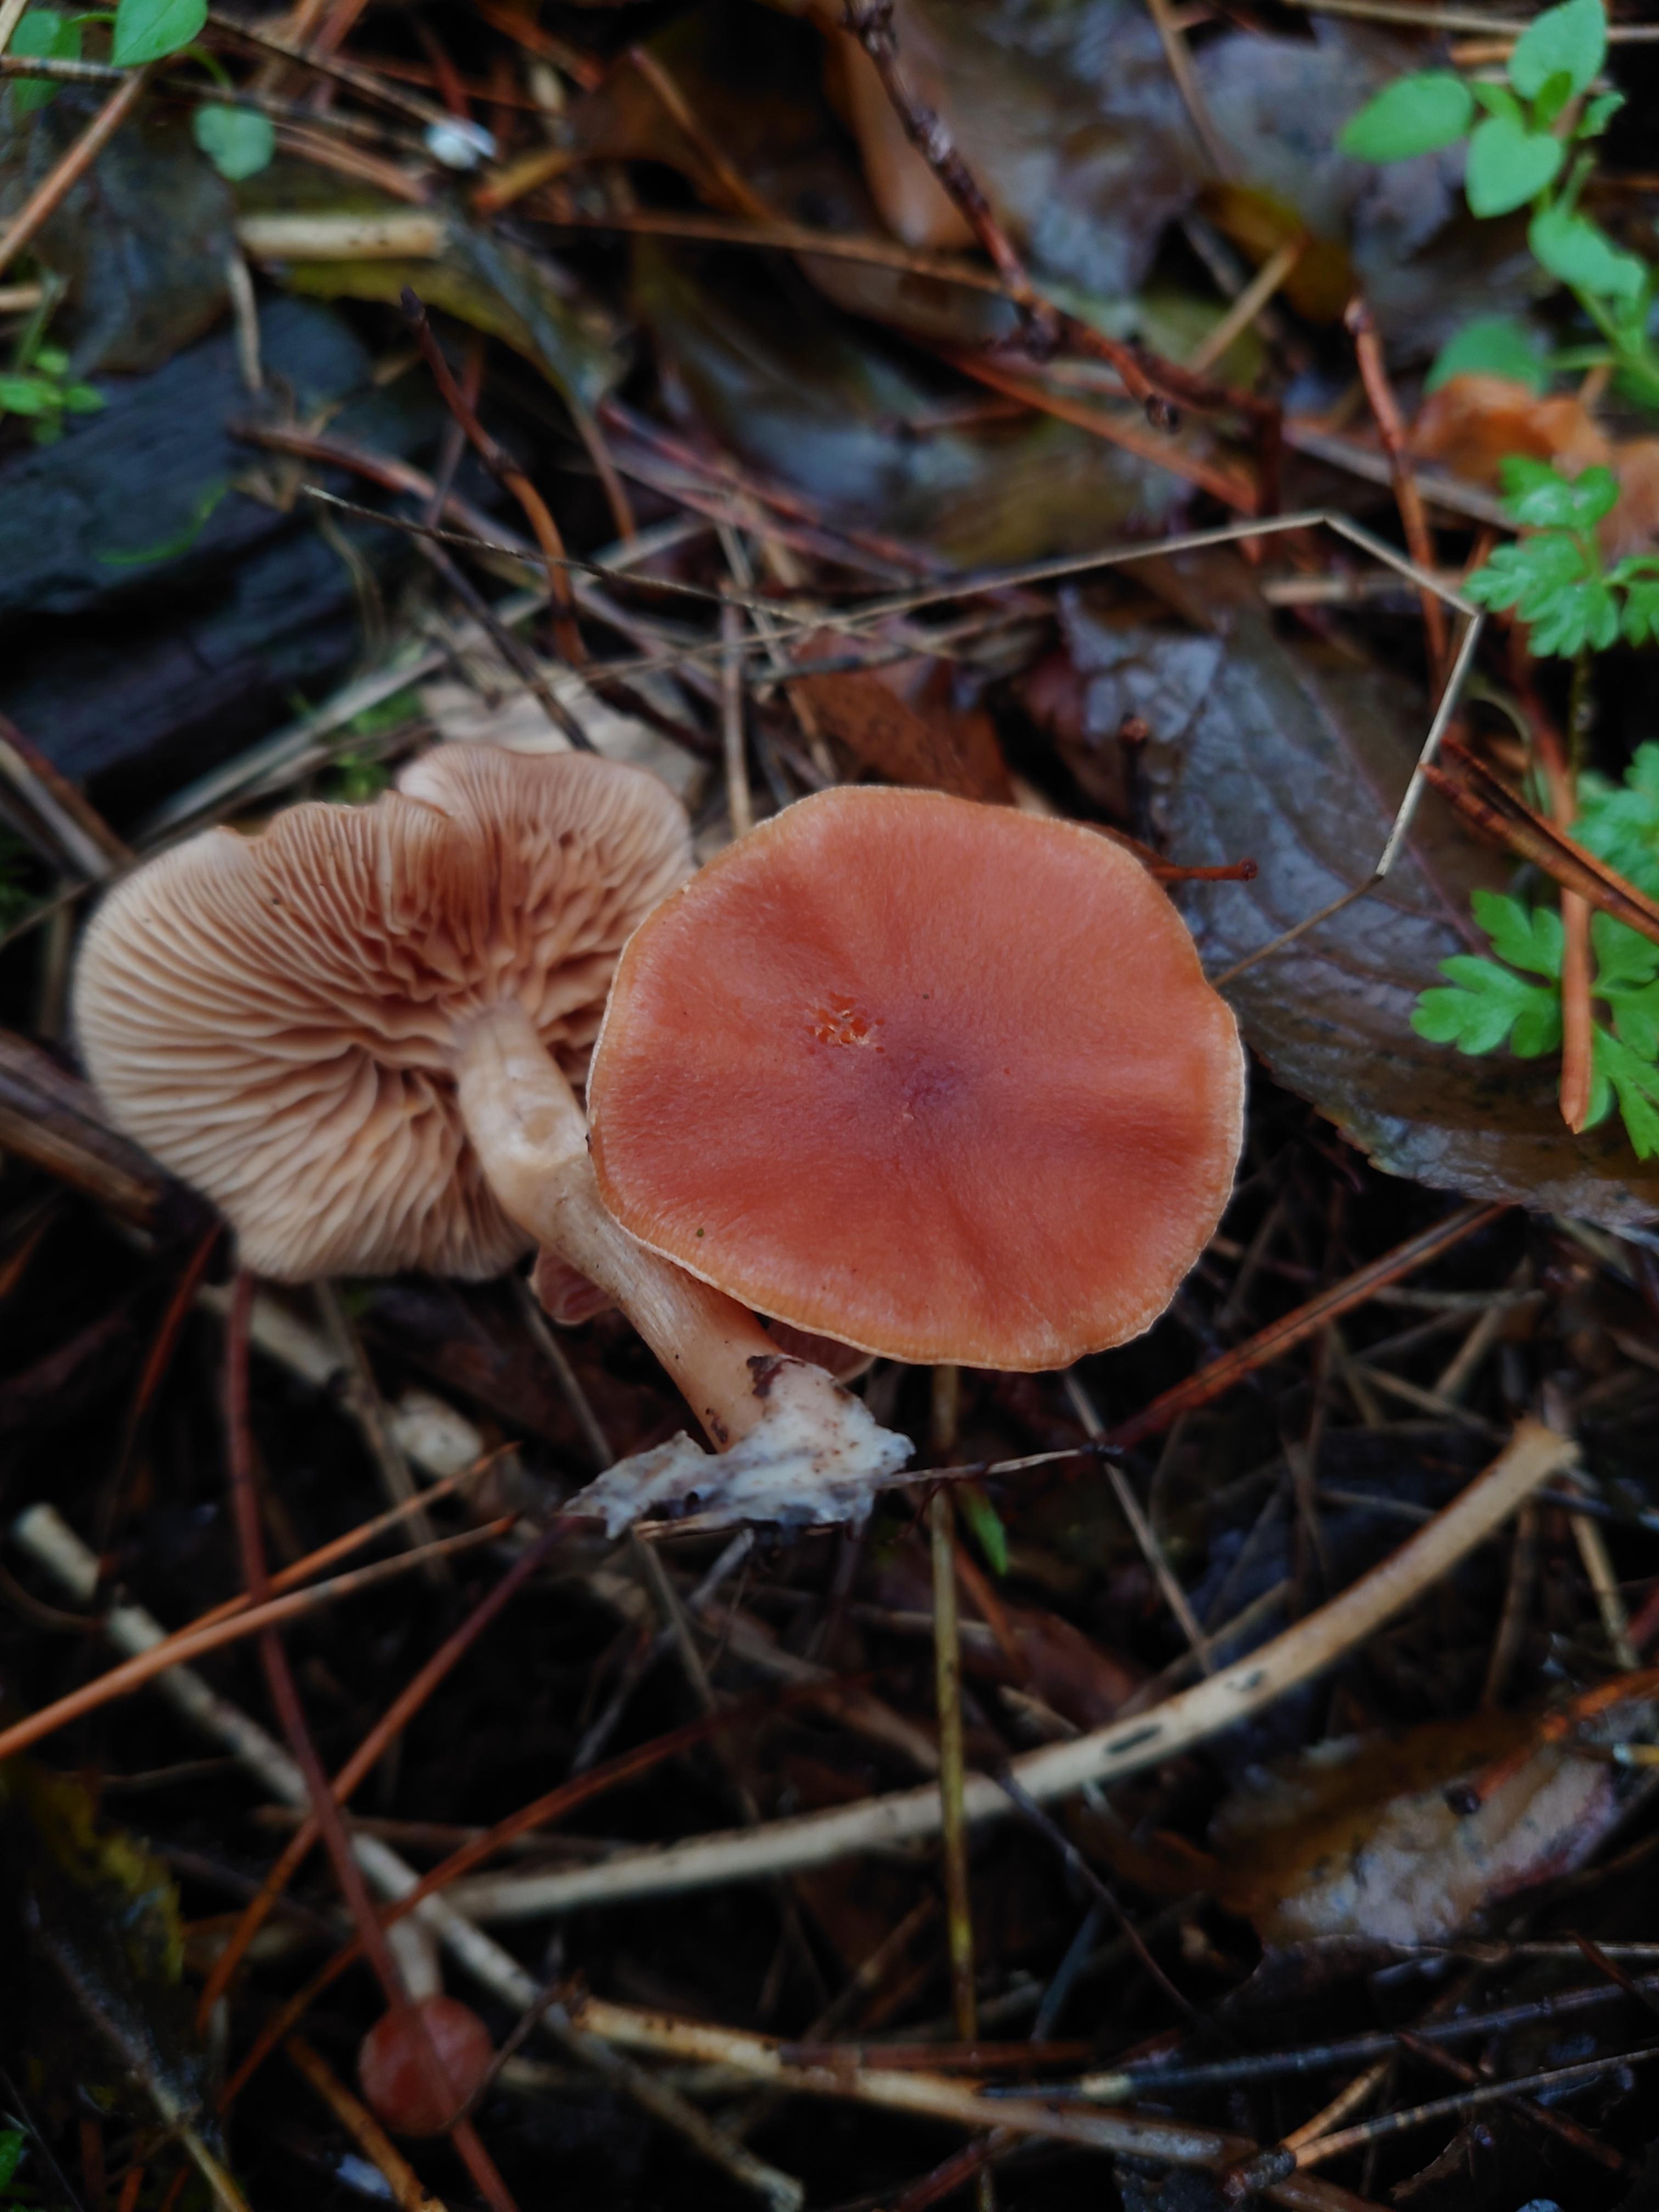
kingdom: Fungi
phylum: Basidiomycota
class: Agaricomycetes
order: Agaricales
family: Tubariaceae
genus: Tubaria
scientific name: Tubaria furfuracea
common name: kliddet fnughat
